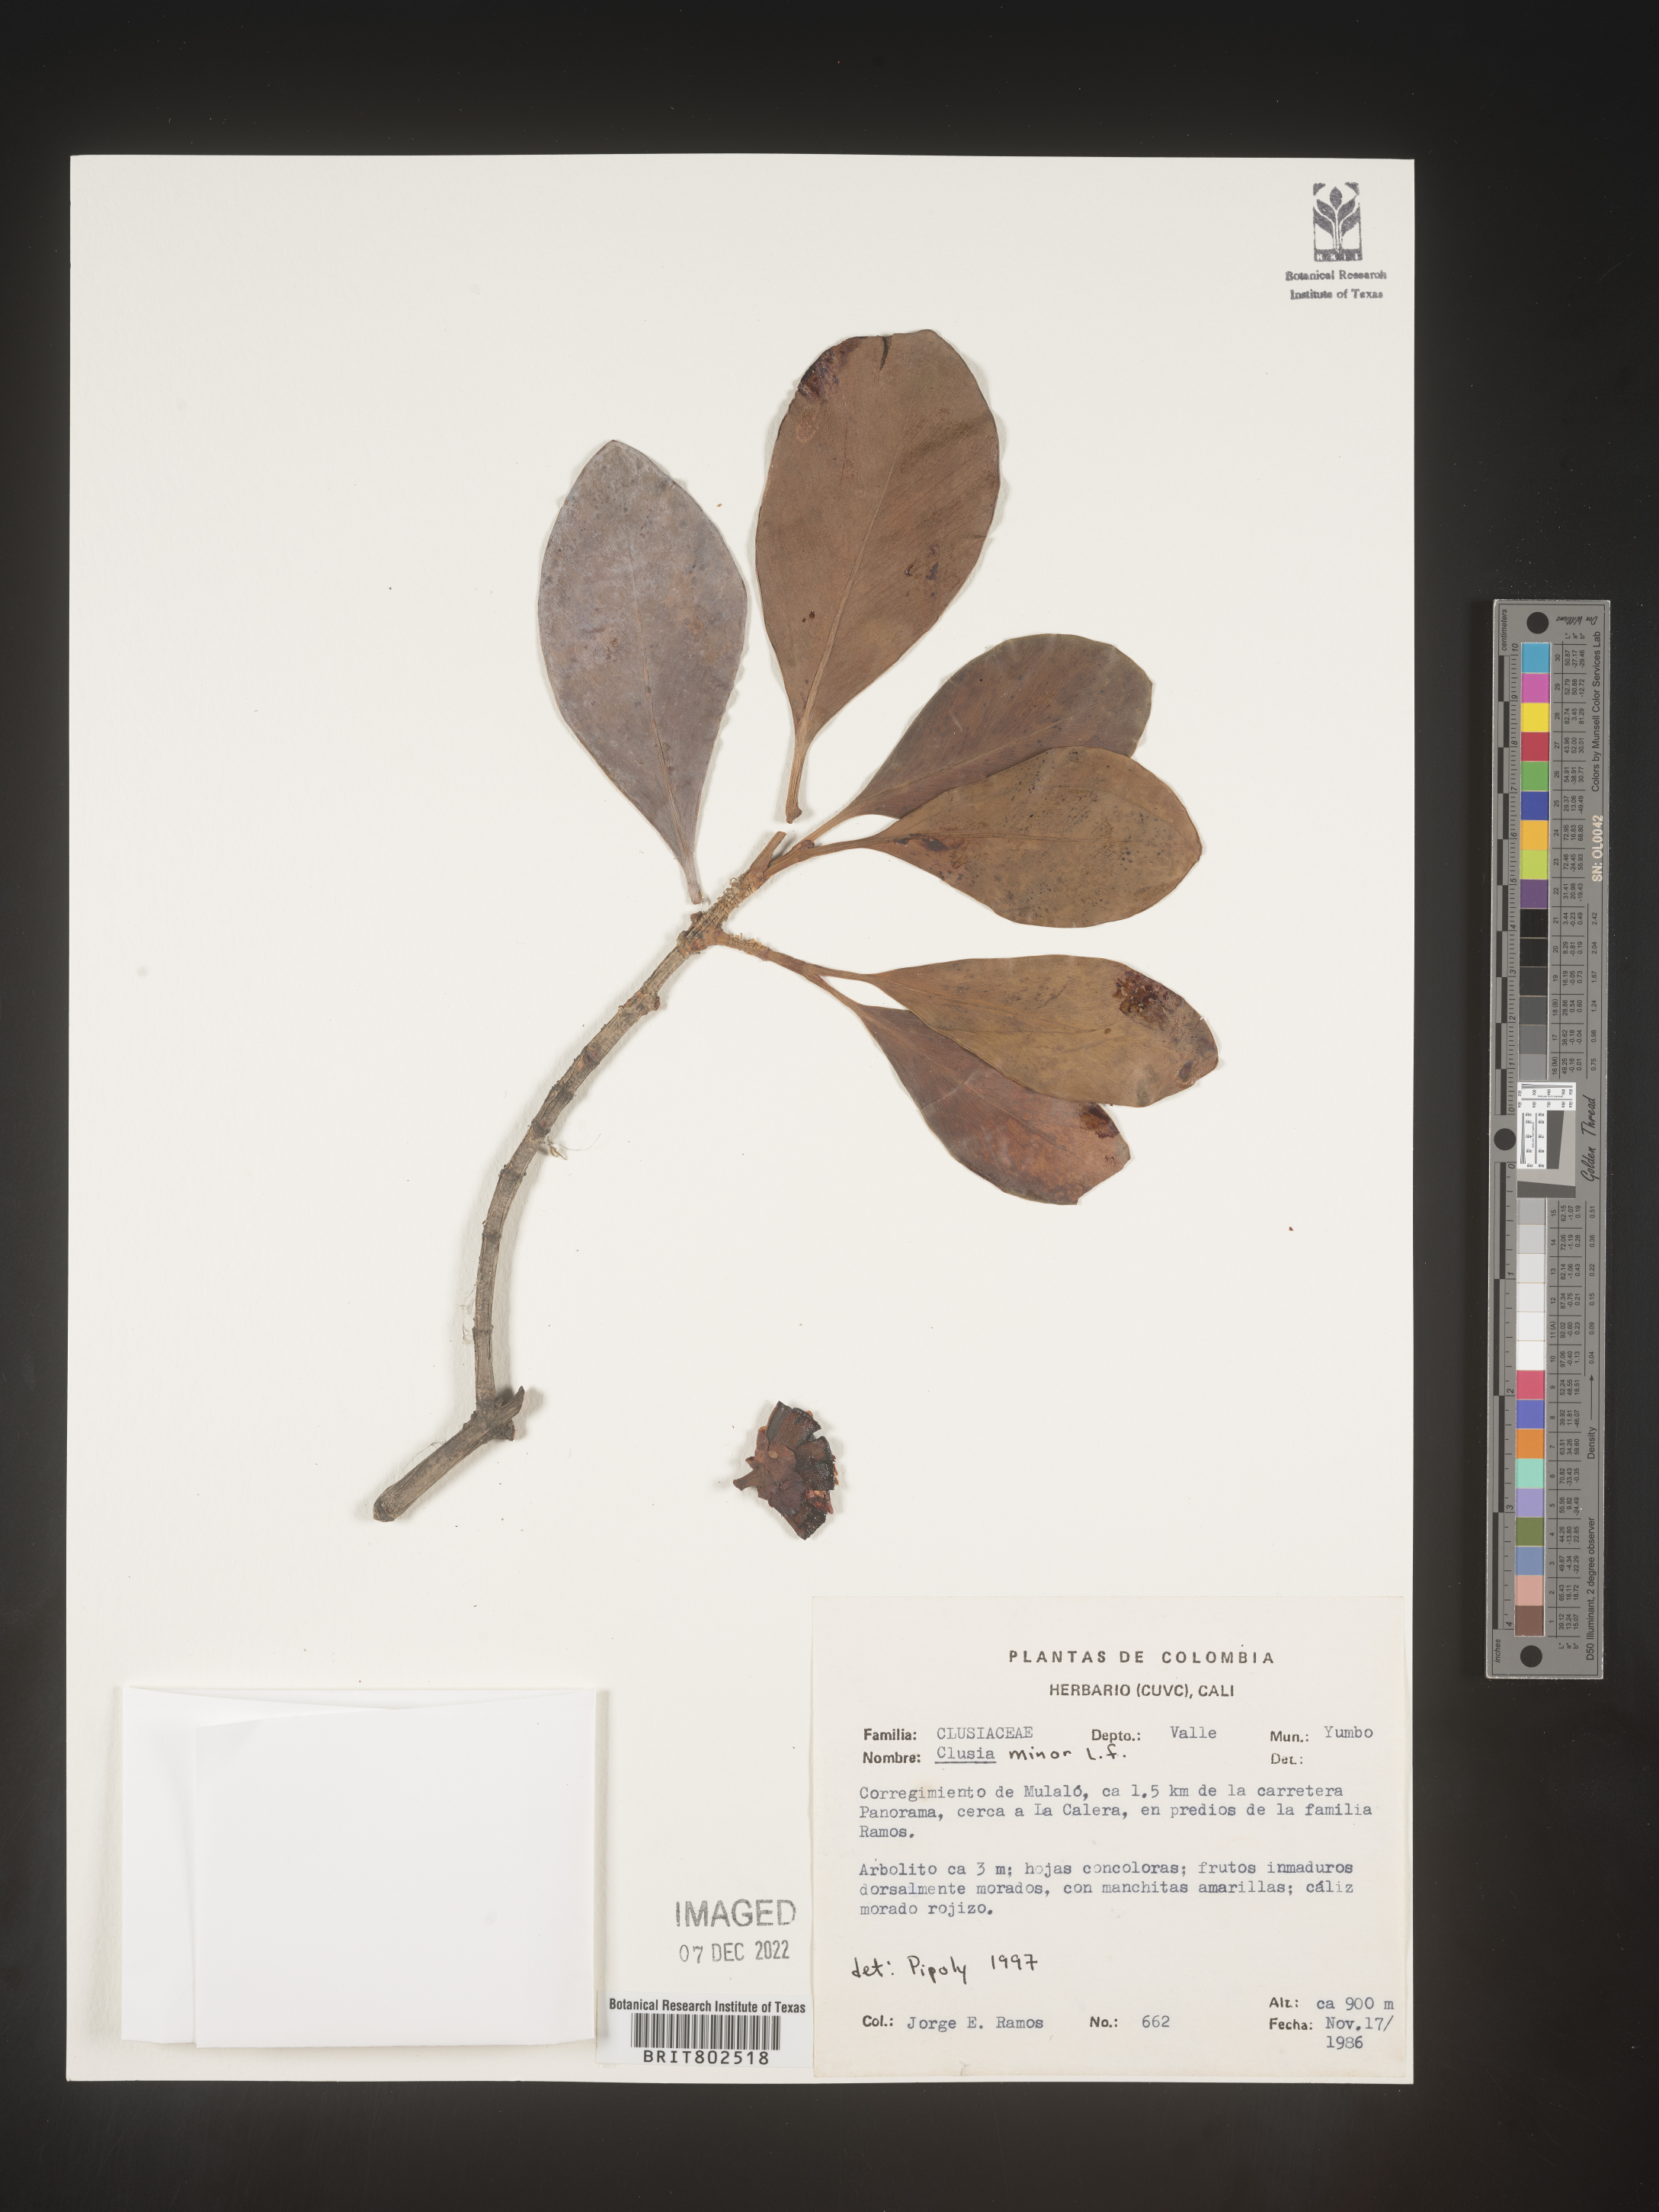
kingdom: Plantae
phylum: Tracheophyta
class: Magnoliopsida
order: Malpighiales
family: Clusiaceae
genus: Clusia
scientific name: Clusia minor
